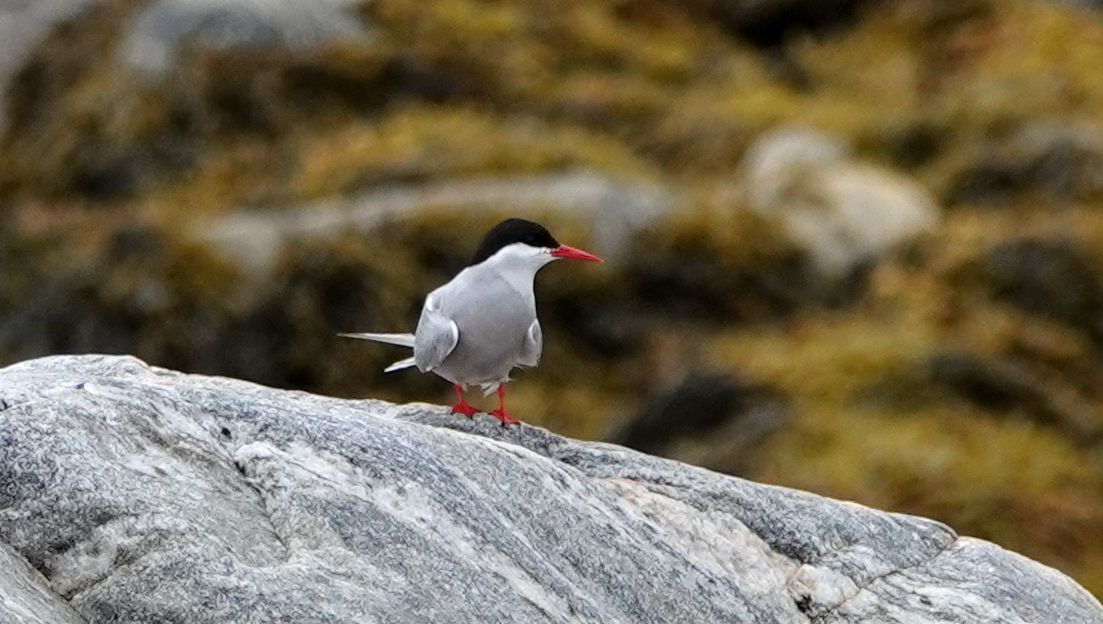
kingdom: Animalia
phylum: Chordata
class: Aves
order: Charadriiformes
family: Laridae
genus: Sterna
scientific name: Sterna paradisaea
